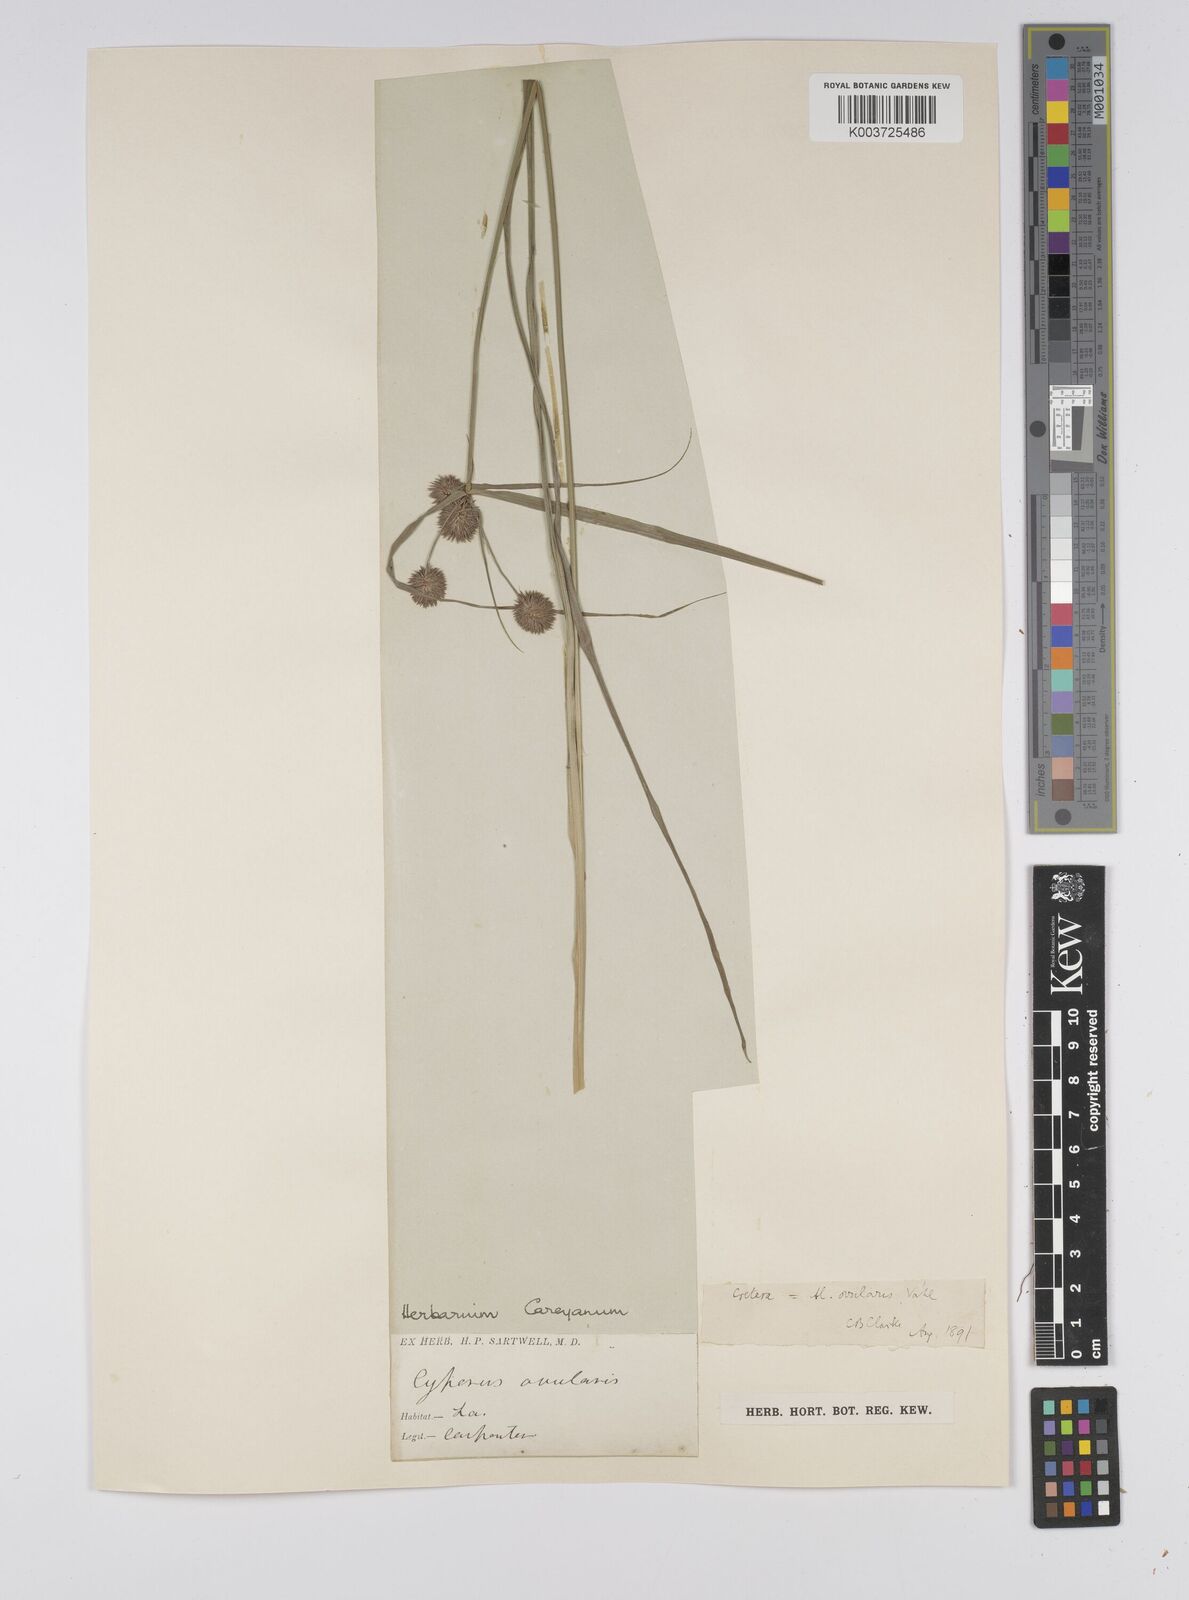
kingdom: Plantae
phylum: Tracheophyta
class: Liliopsida
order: Poales
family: Cyperaceae
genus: Cyperus
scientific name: Cyperus echinatus
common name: Teasel sedge
